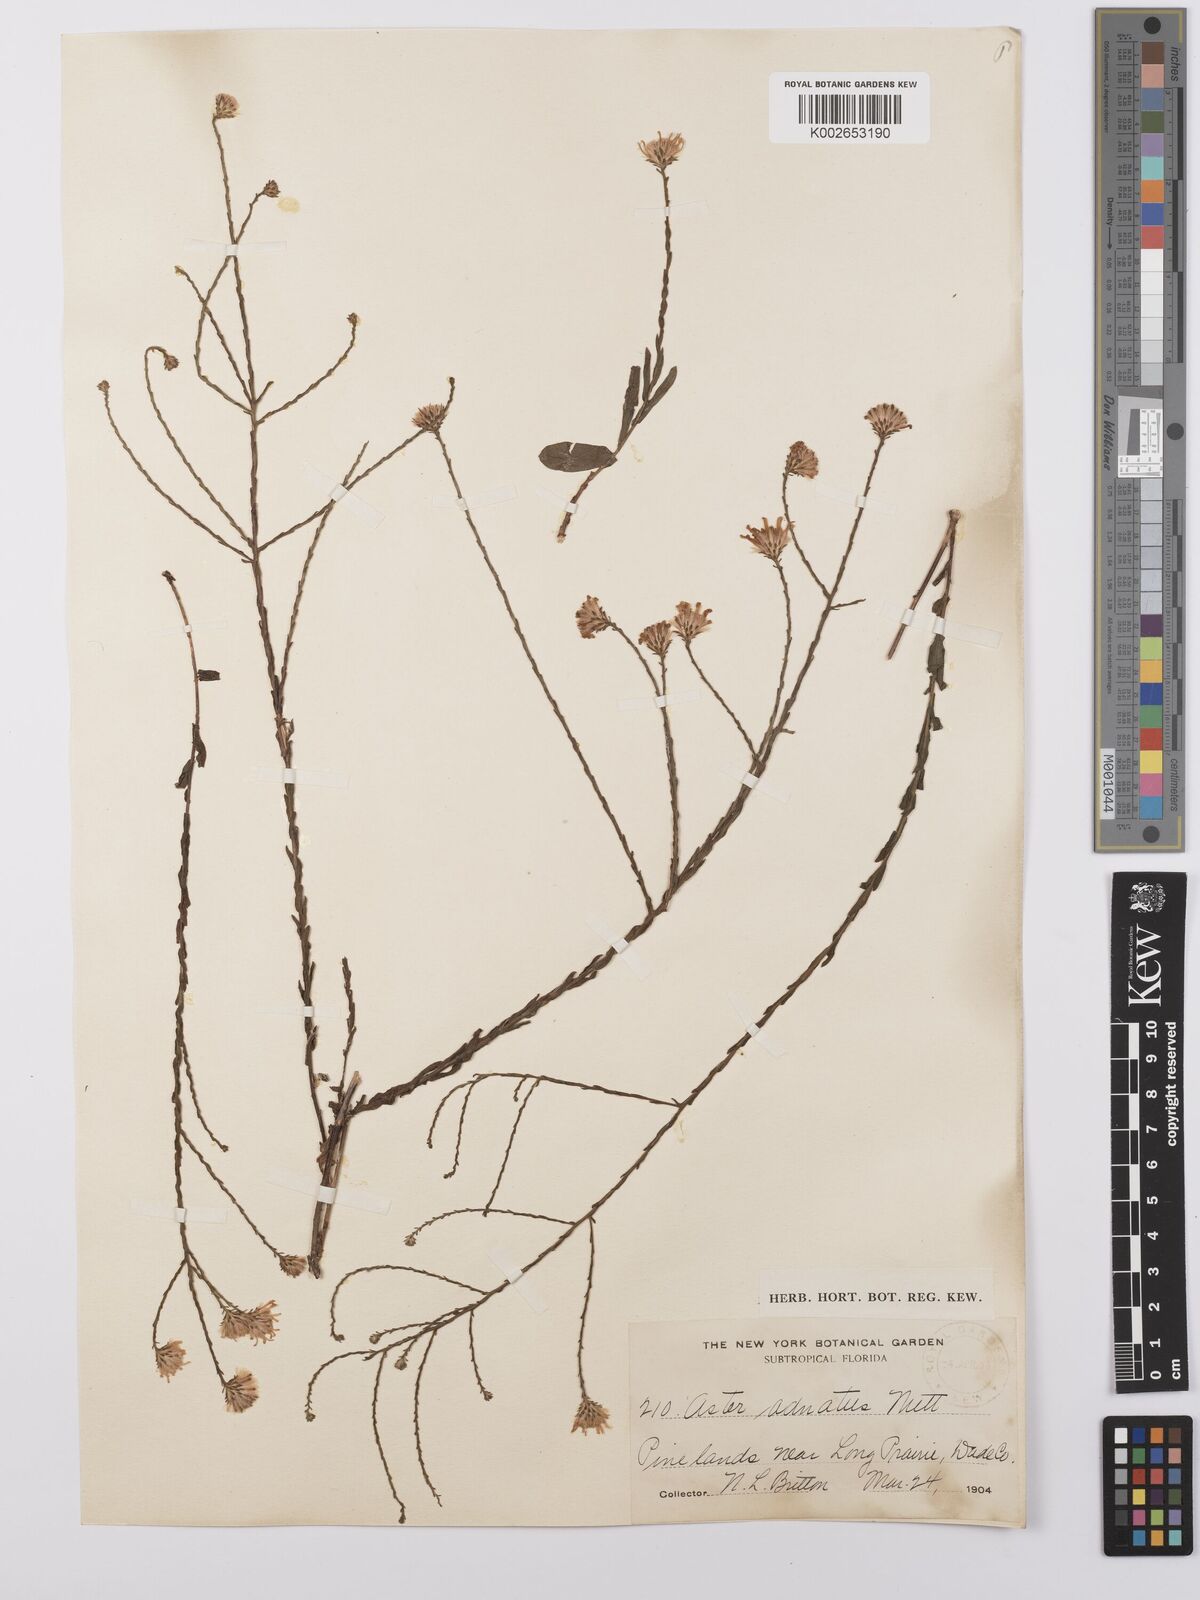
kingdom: Plantae
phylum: Tracheophyta
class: Magnoliopsida
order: Asterales
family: Asteraceae
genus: Symphyotrichum
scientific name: Symphyotrichum adnatum
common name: Scale-leaf aster
